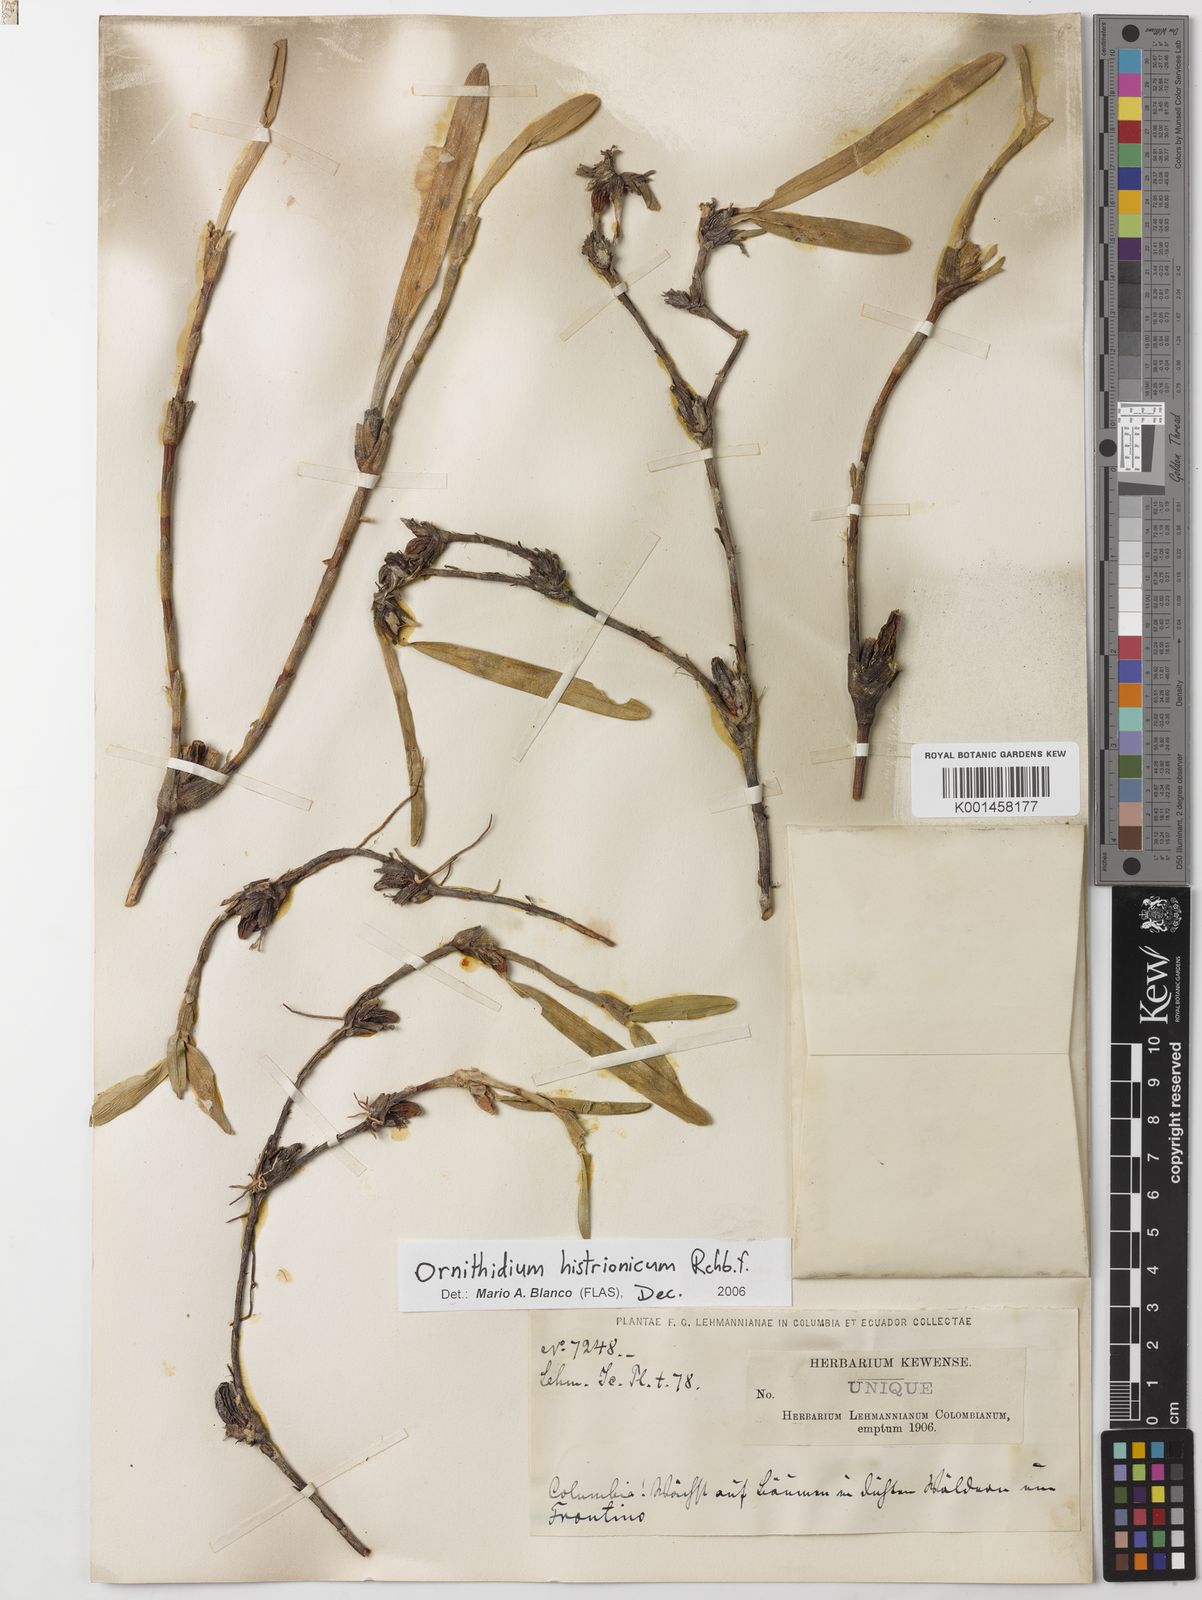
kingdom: Plantae
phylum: Tracheophyta
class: Liliopsida
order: Asparagales
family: Orchidaceae
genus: Maxillaria
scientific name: Maxillaria histrionica
